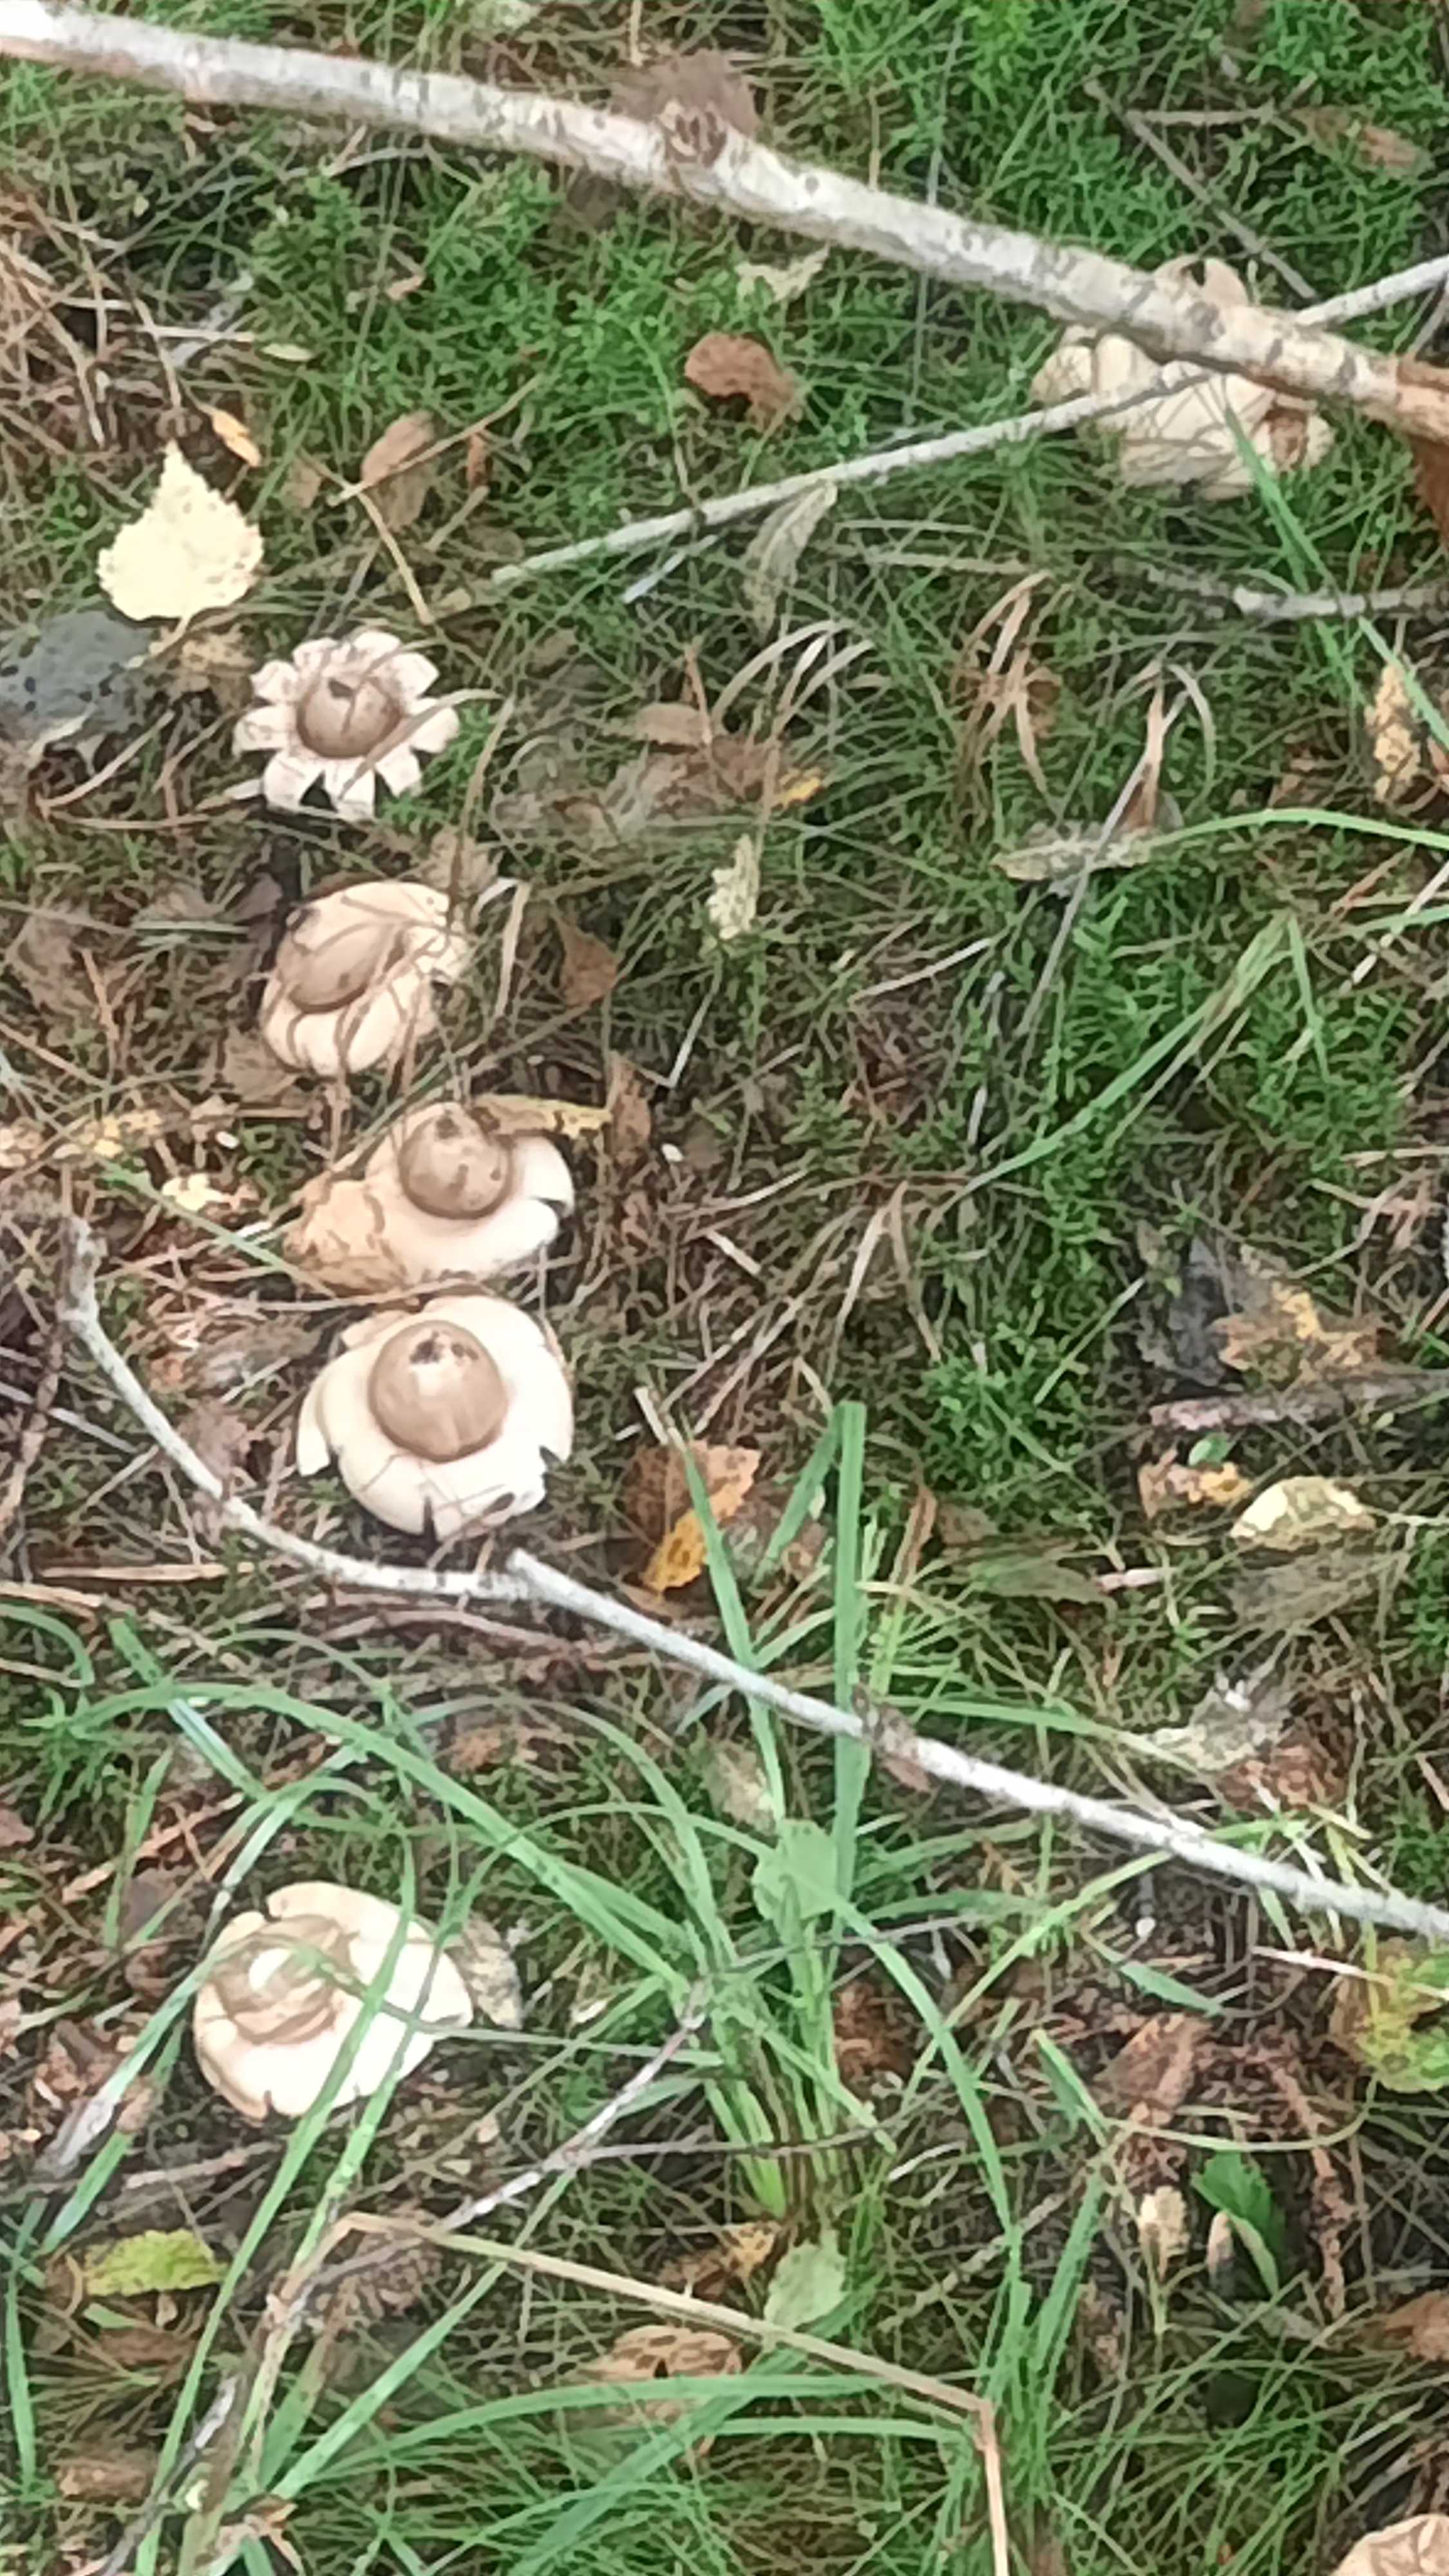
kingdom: Fungi
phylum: Basidiomycota
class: Agaricomycetes
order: Geastrales
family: Geastraceae
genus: Geastrum
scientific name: Geastrum fimbriatum
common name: frynset stjernebold
